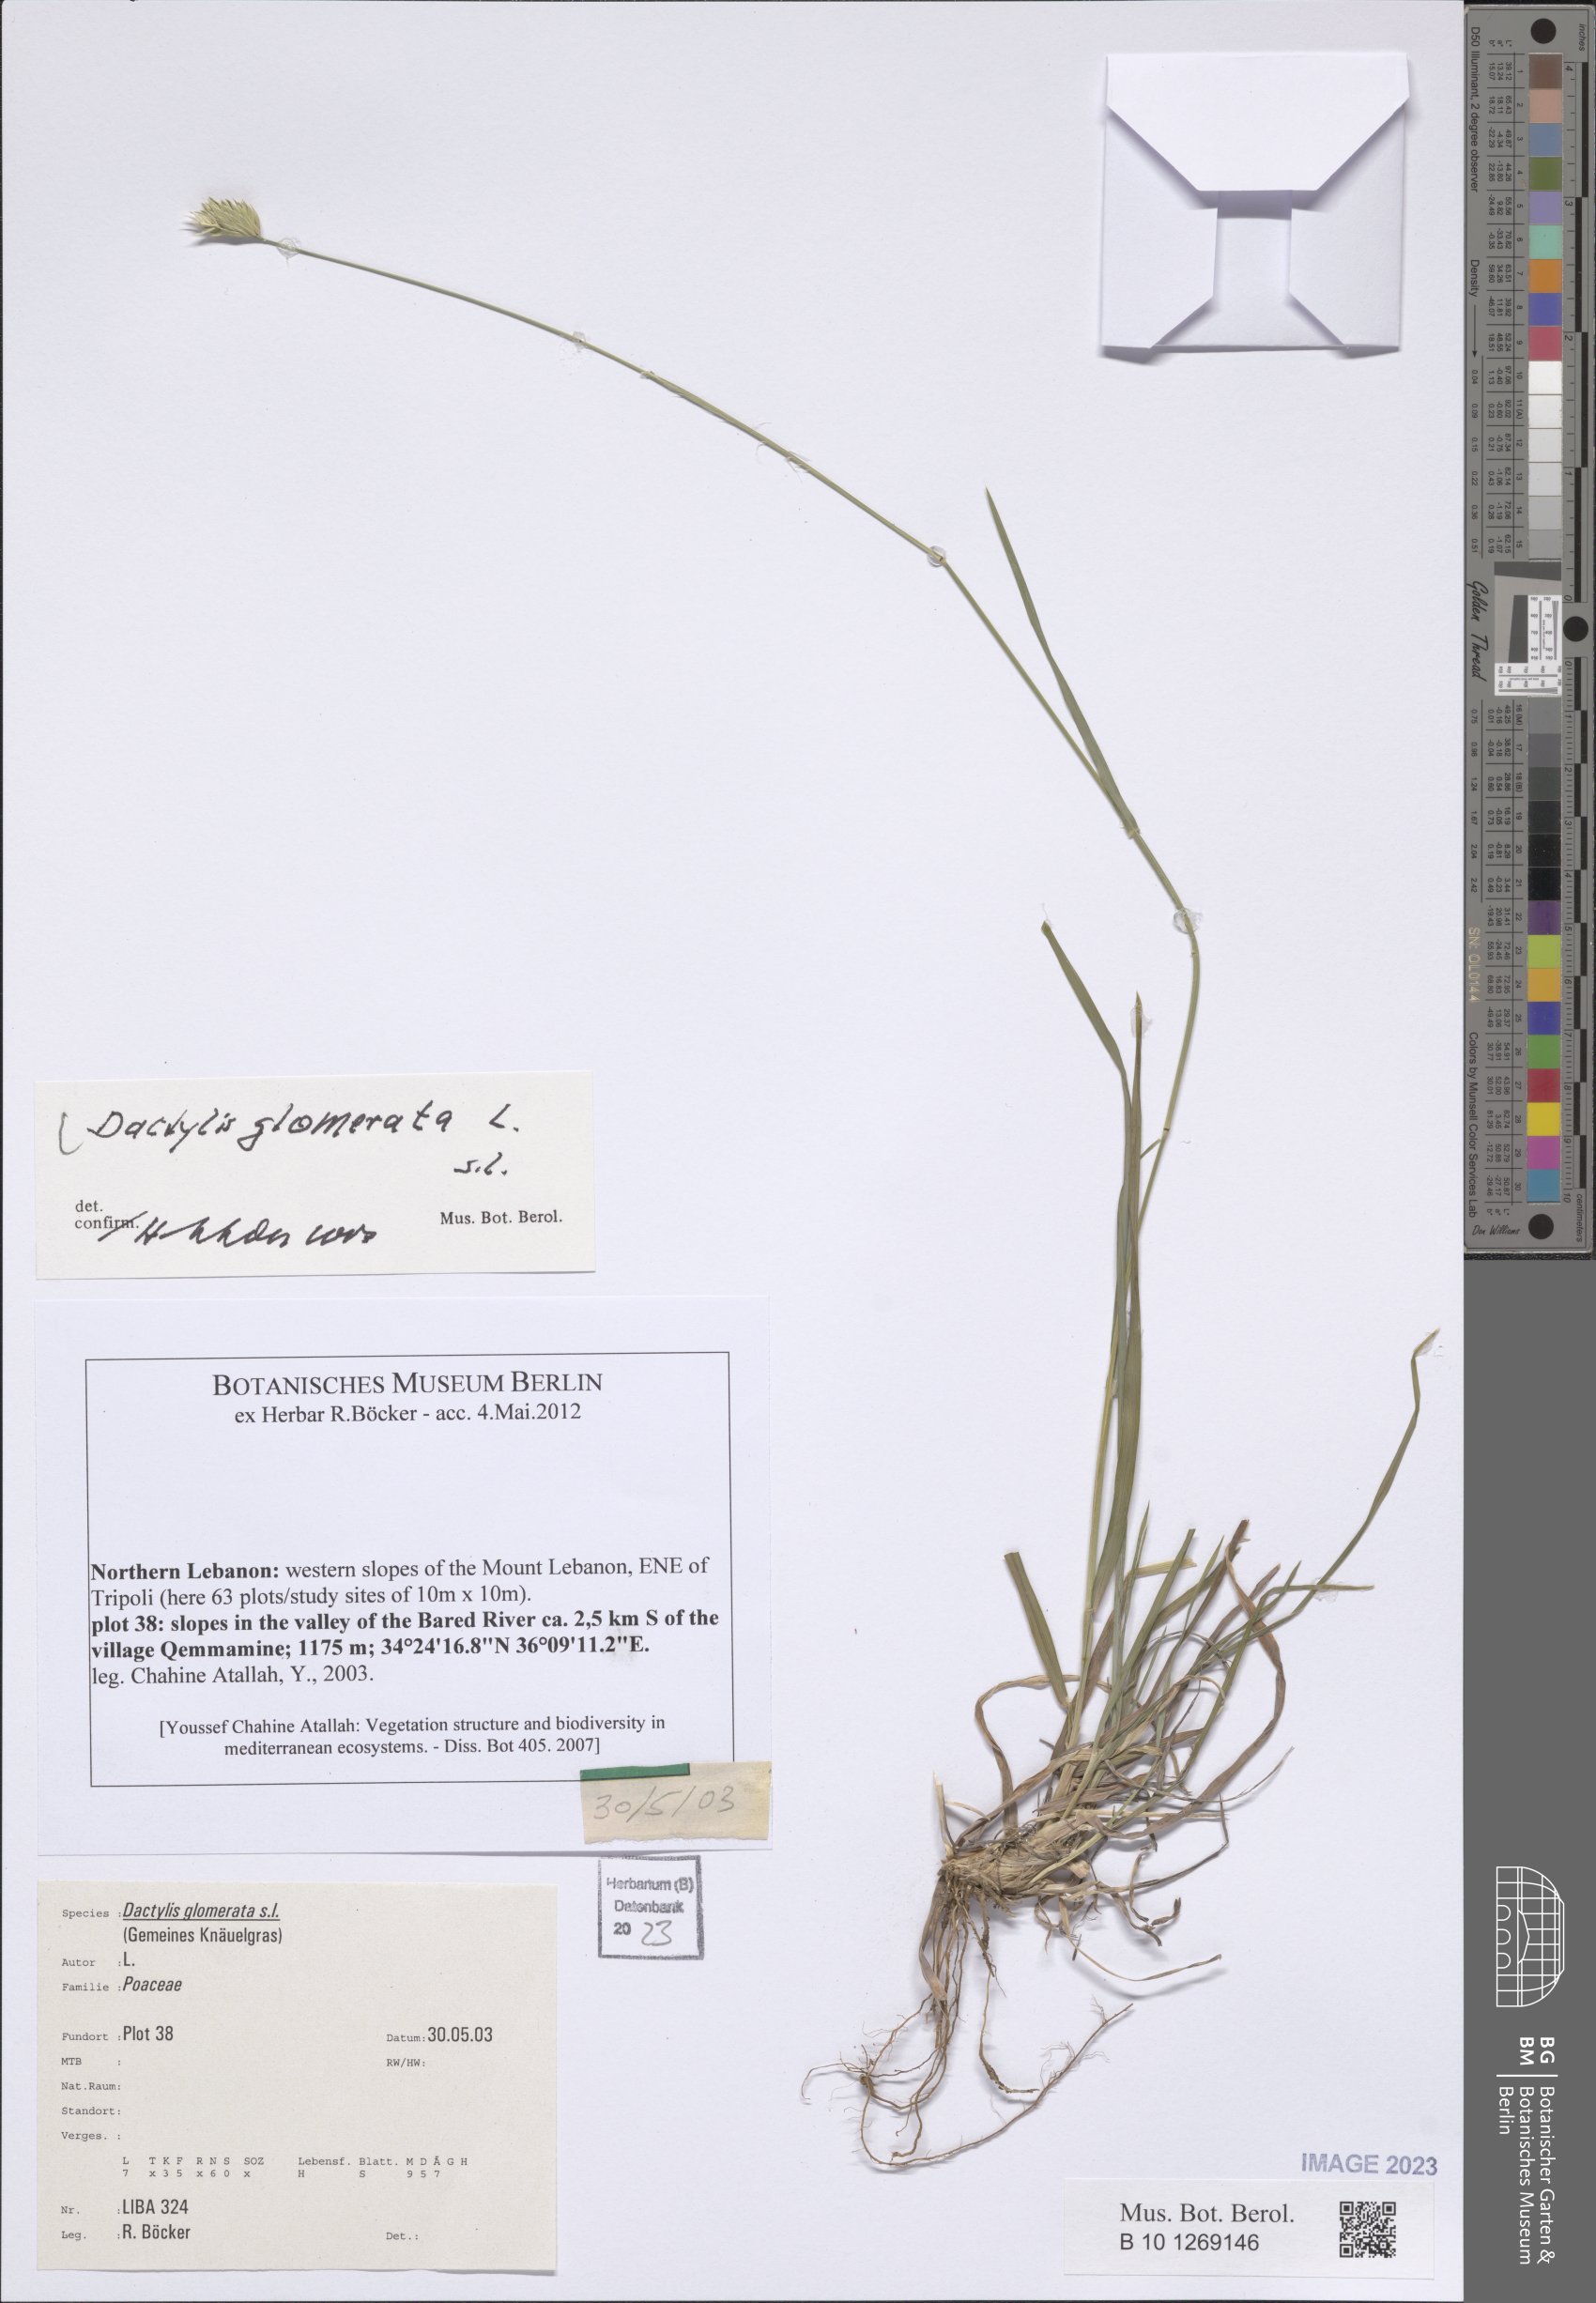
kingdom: Plantae
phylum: Tracheophyta
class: Liliopsida
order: Poales
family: Poaceae
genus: Dactylis
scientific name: Dactylis glomerata
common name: Orchardgrass
